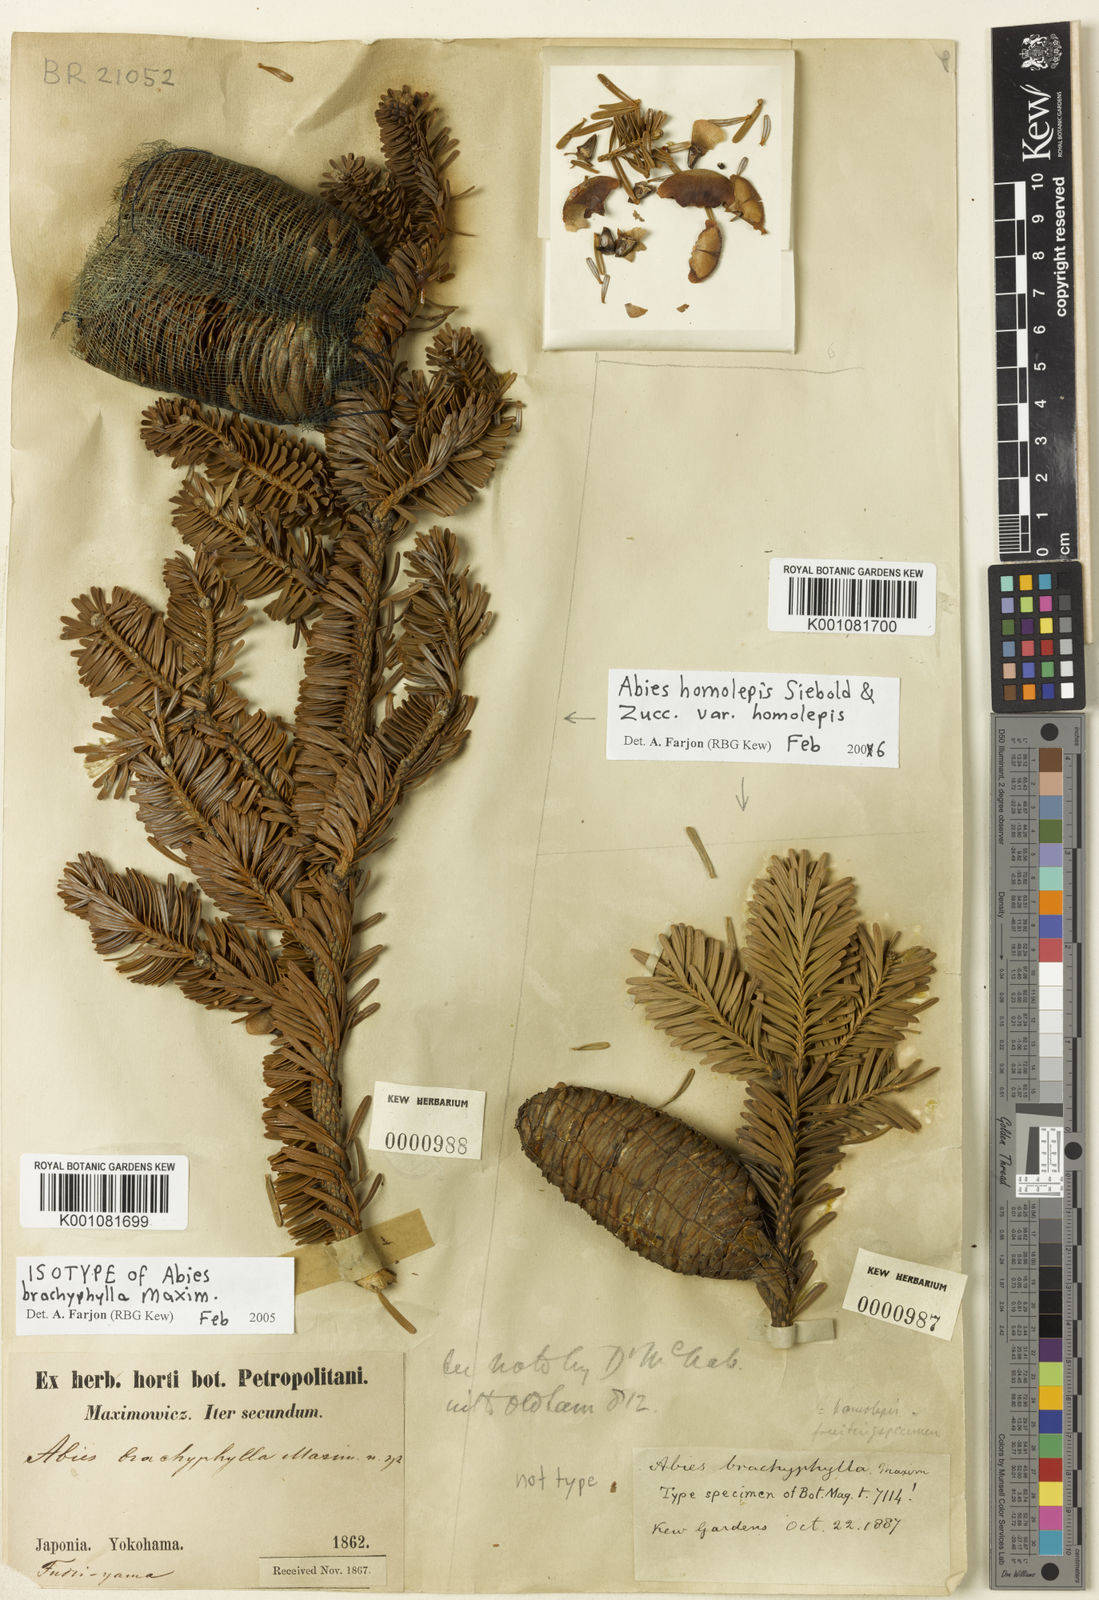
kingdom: Plantae
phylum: Tracheophyta
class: Pinopsida
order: Pinales
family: Pinaceae
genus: Abies
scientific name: Abies homolepis
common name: Nikko fir
